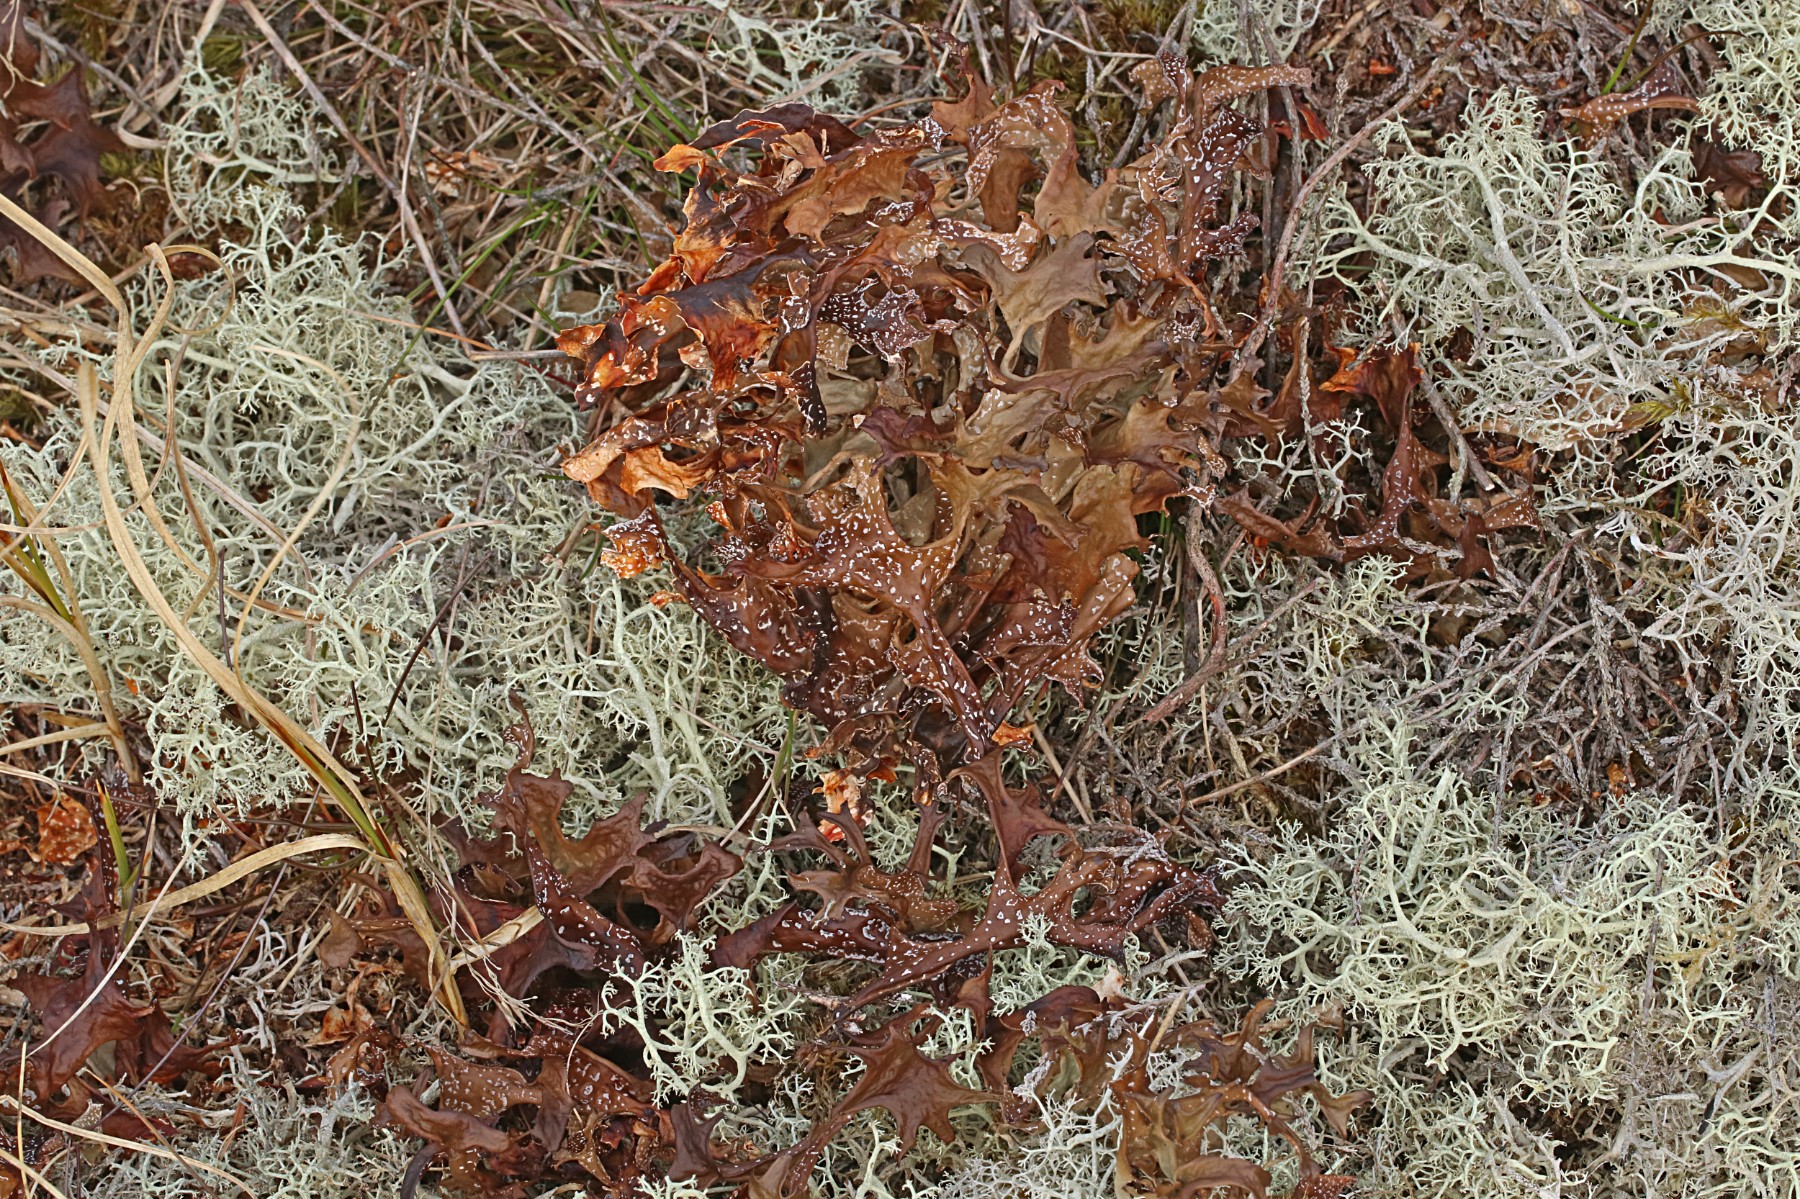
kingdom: Fungi
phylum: Ascomycota
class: Lecanoromycetes
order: Lecanorales
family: Parmeliaceae
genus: Cetraria
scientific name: Cetraria islandica
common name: islandsk kruslav
